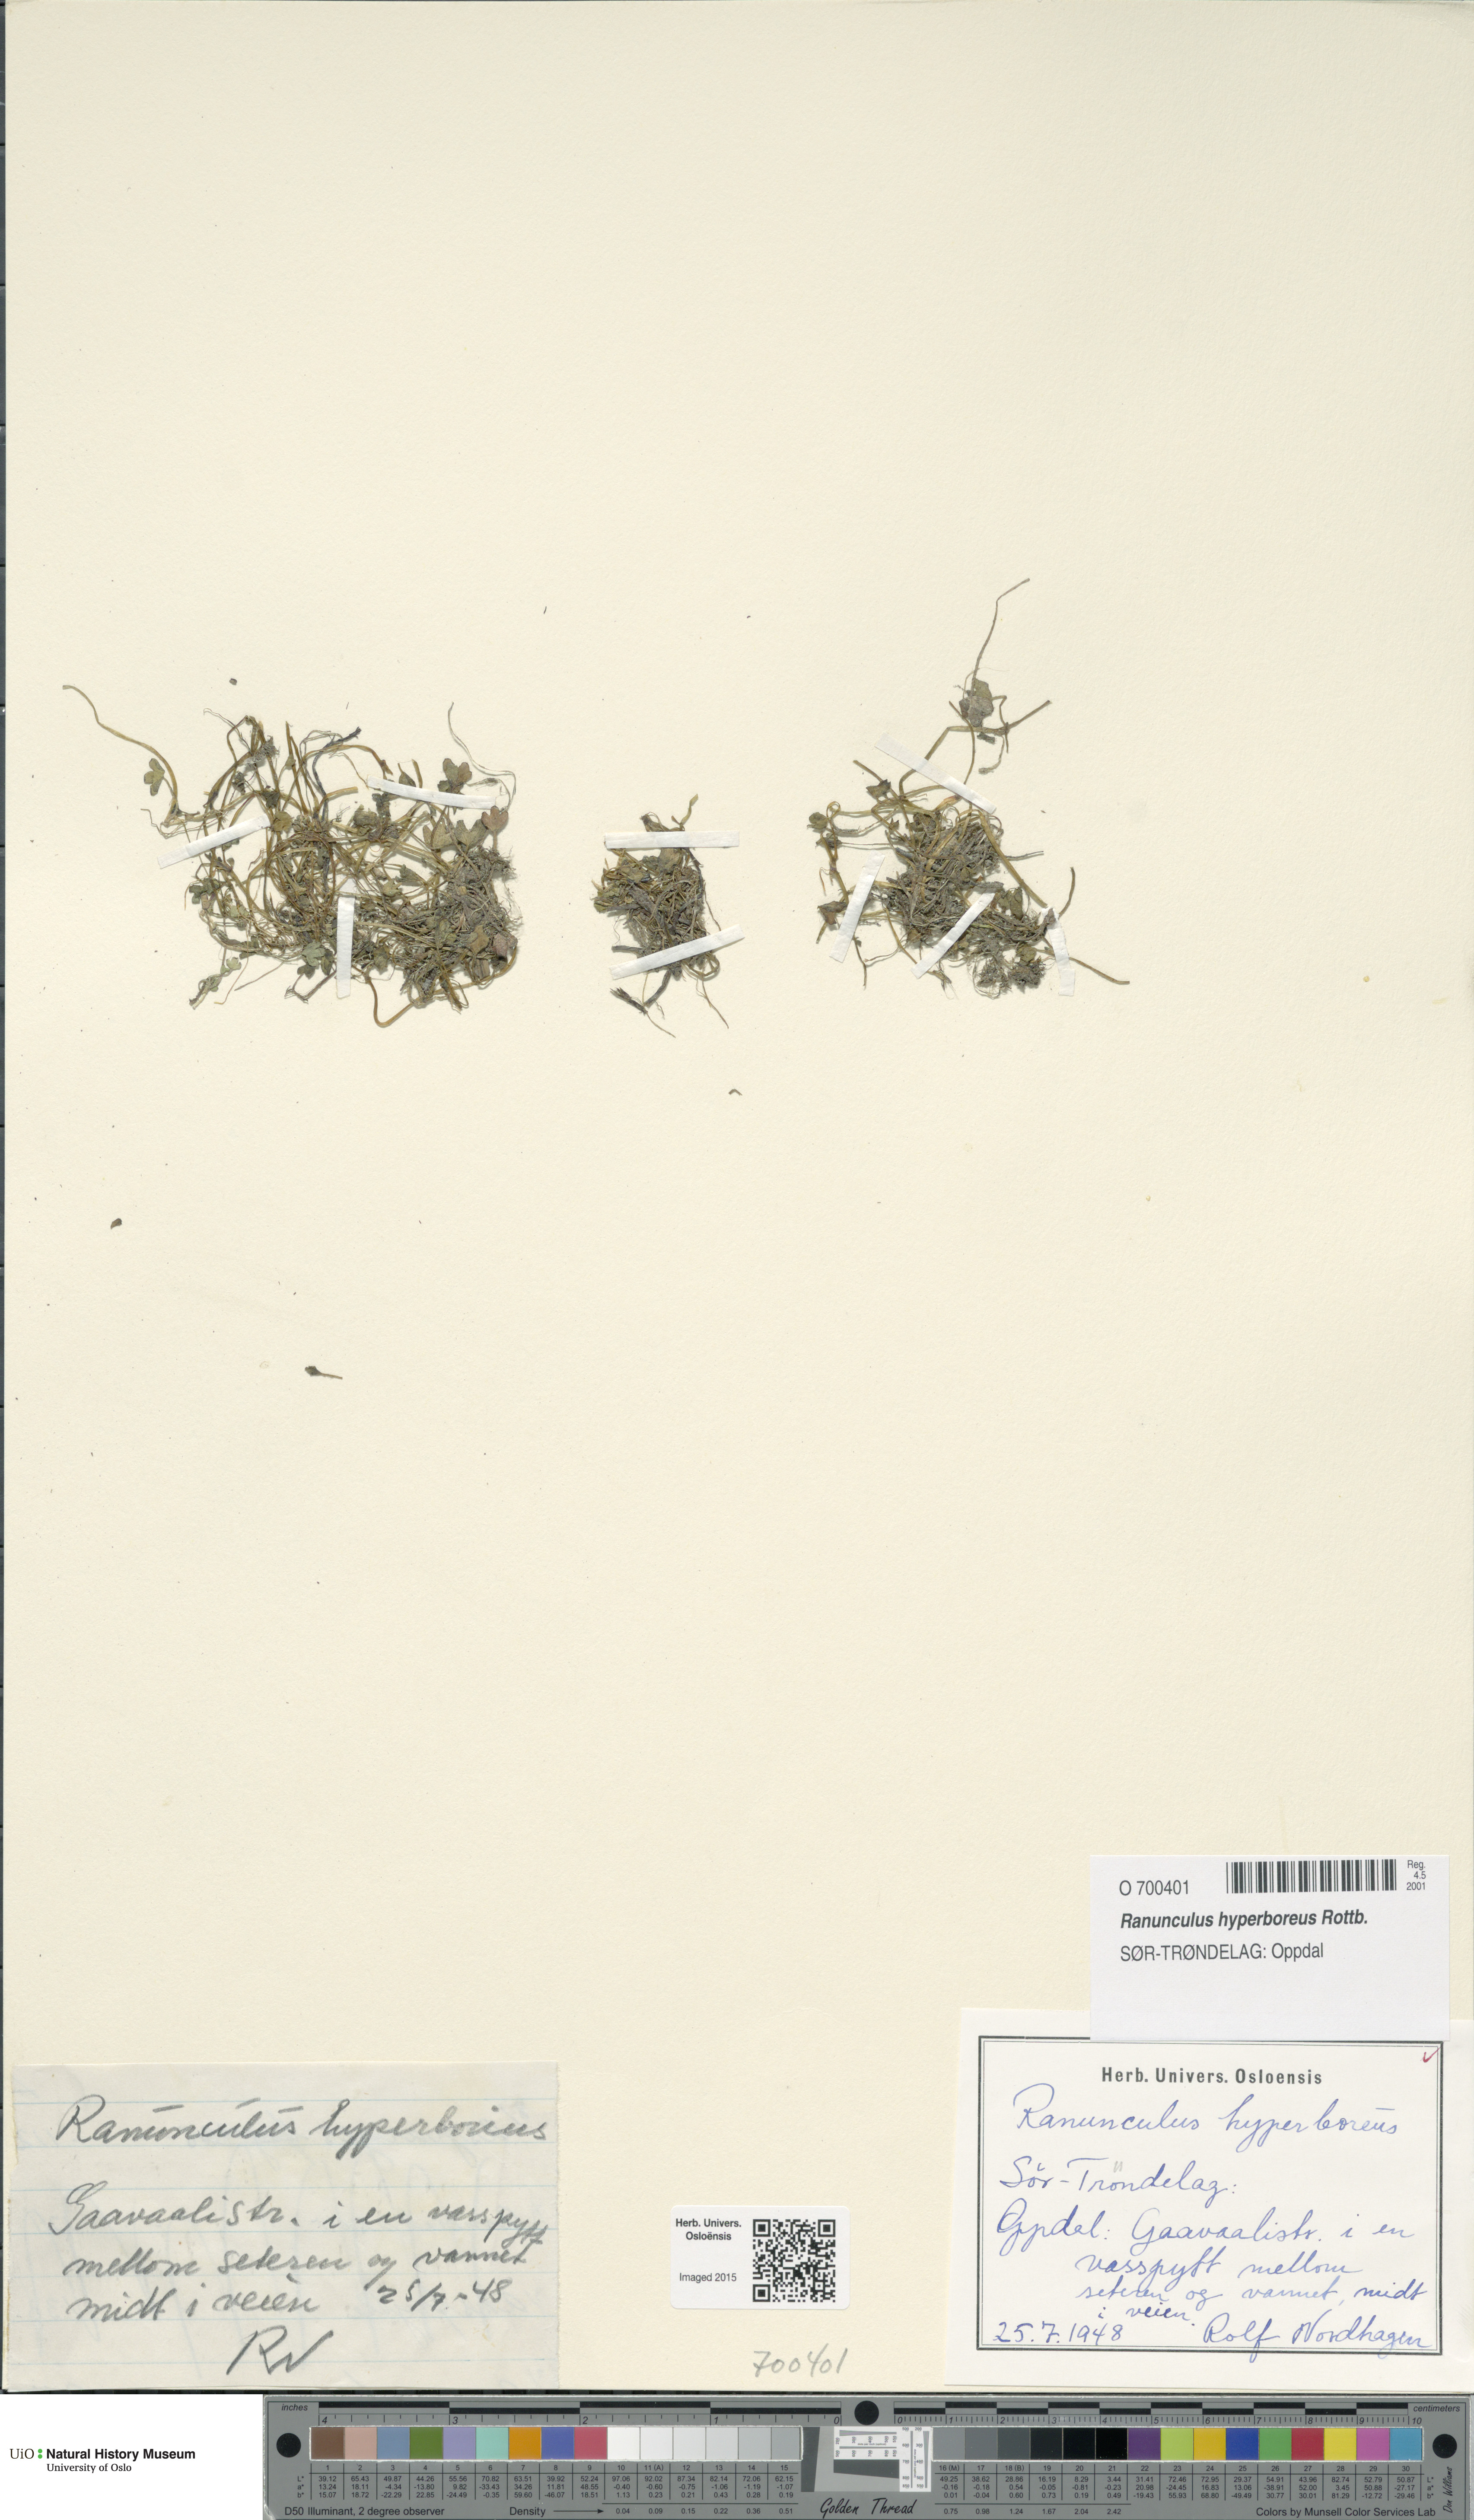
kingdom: Plantae
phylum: Tracheophyta
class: Magnoliopsida
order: Ranunculales
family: Ranunculaceae
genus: Ranunculus
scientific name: Ranunculus hyperboreus
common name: Arctic buttercup
